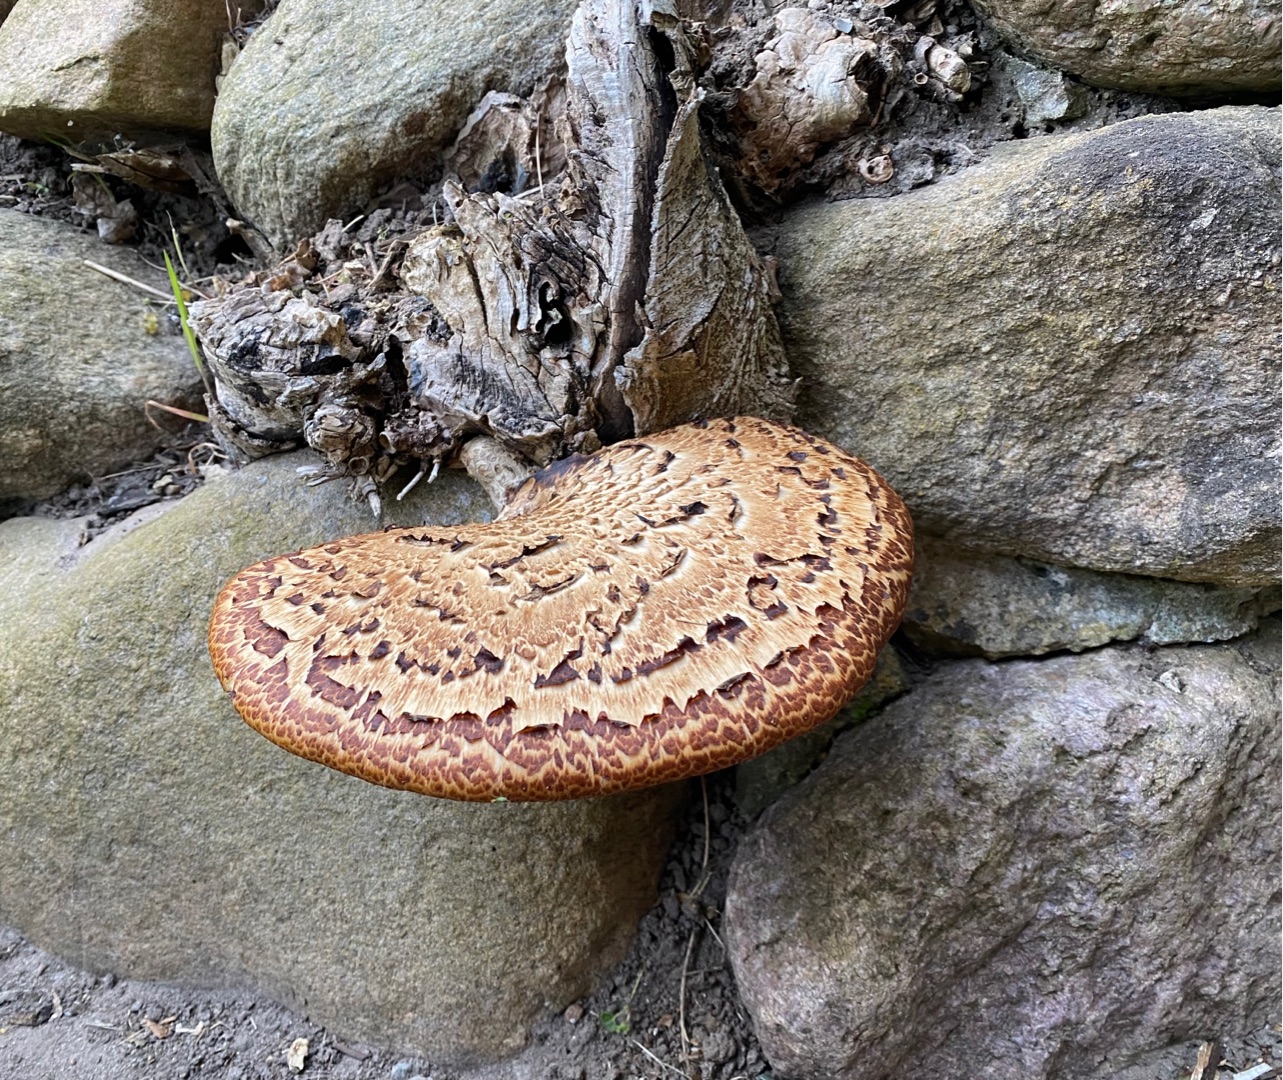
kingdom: Fungi
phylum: Basidiomycota
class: Agaricomycetes
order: Polyporales
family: Polyporaceae
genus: Cerioporus
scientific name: Cerioporus squamosus
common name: Skællet stilkporesvamp
